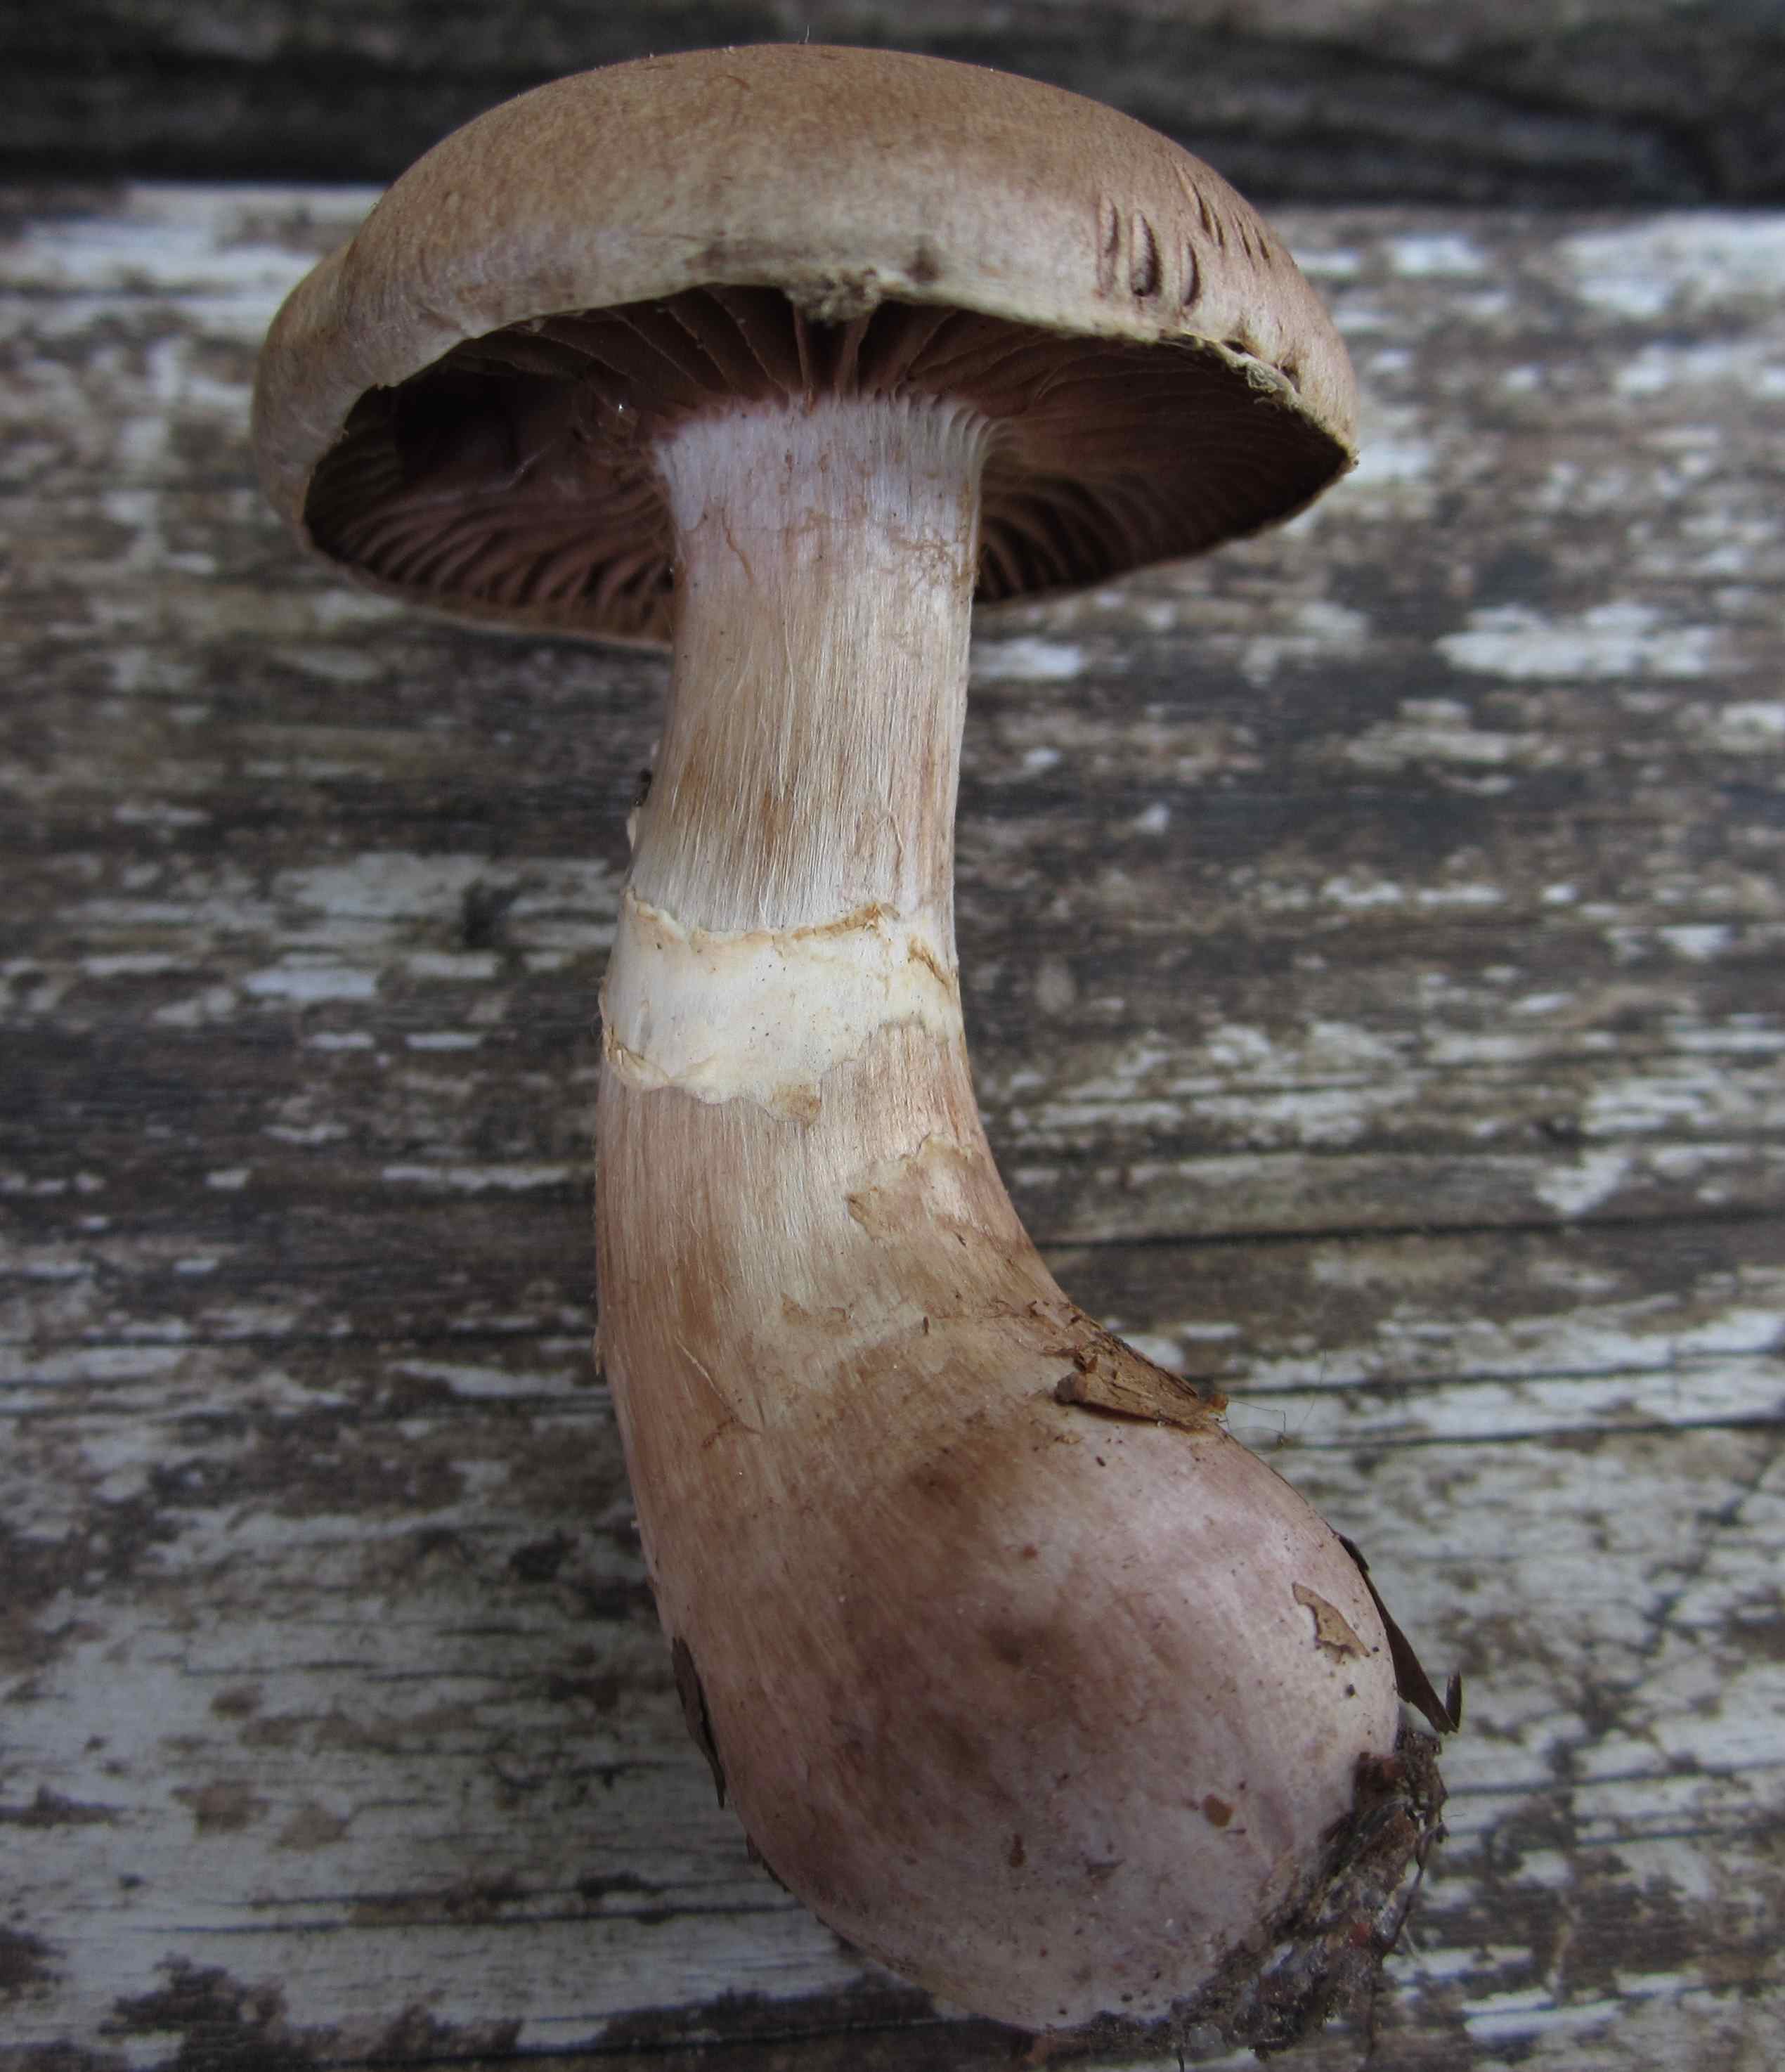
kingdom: Fungi
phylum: Basidiomycota
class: Agaricomycetes
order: Agaricales
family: Cortinariaceae
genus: Cortinarius
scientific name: Cortinarius torvus
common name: champignonagtig slørhat
